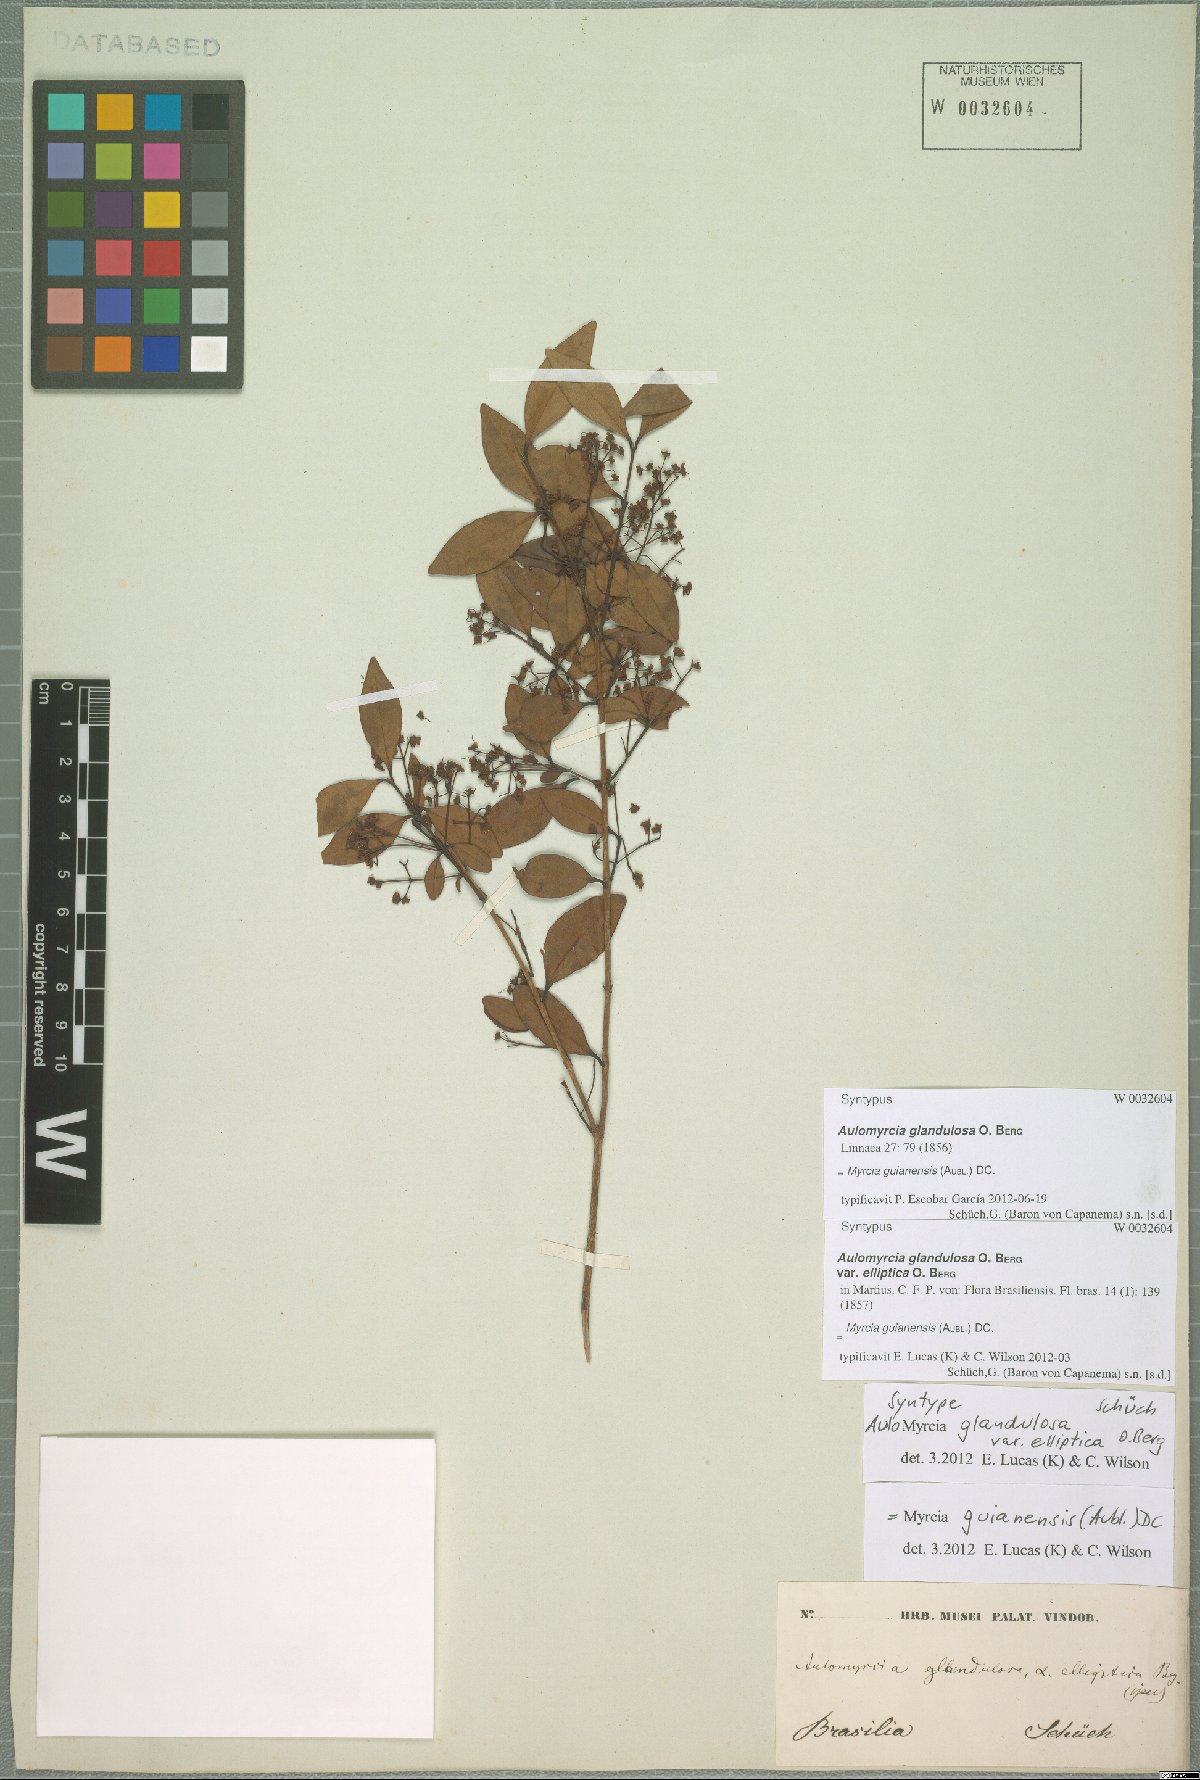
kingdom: Plantae
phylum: Tracheophyta
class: Magnoliopsida
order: Myrtales
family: Myrtaceae
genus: Myrcia
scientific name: Myrcia guianensis
